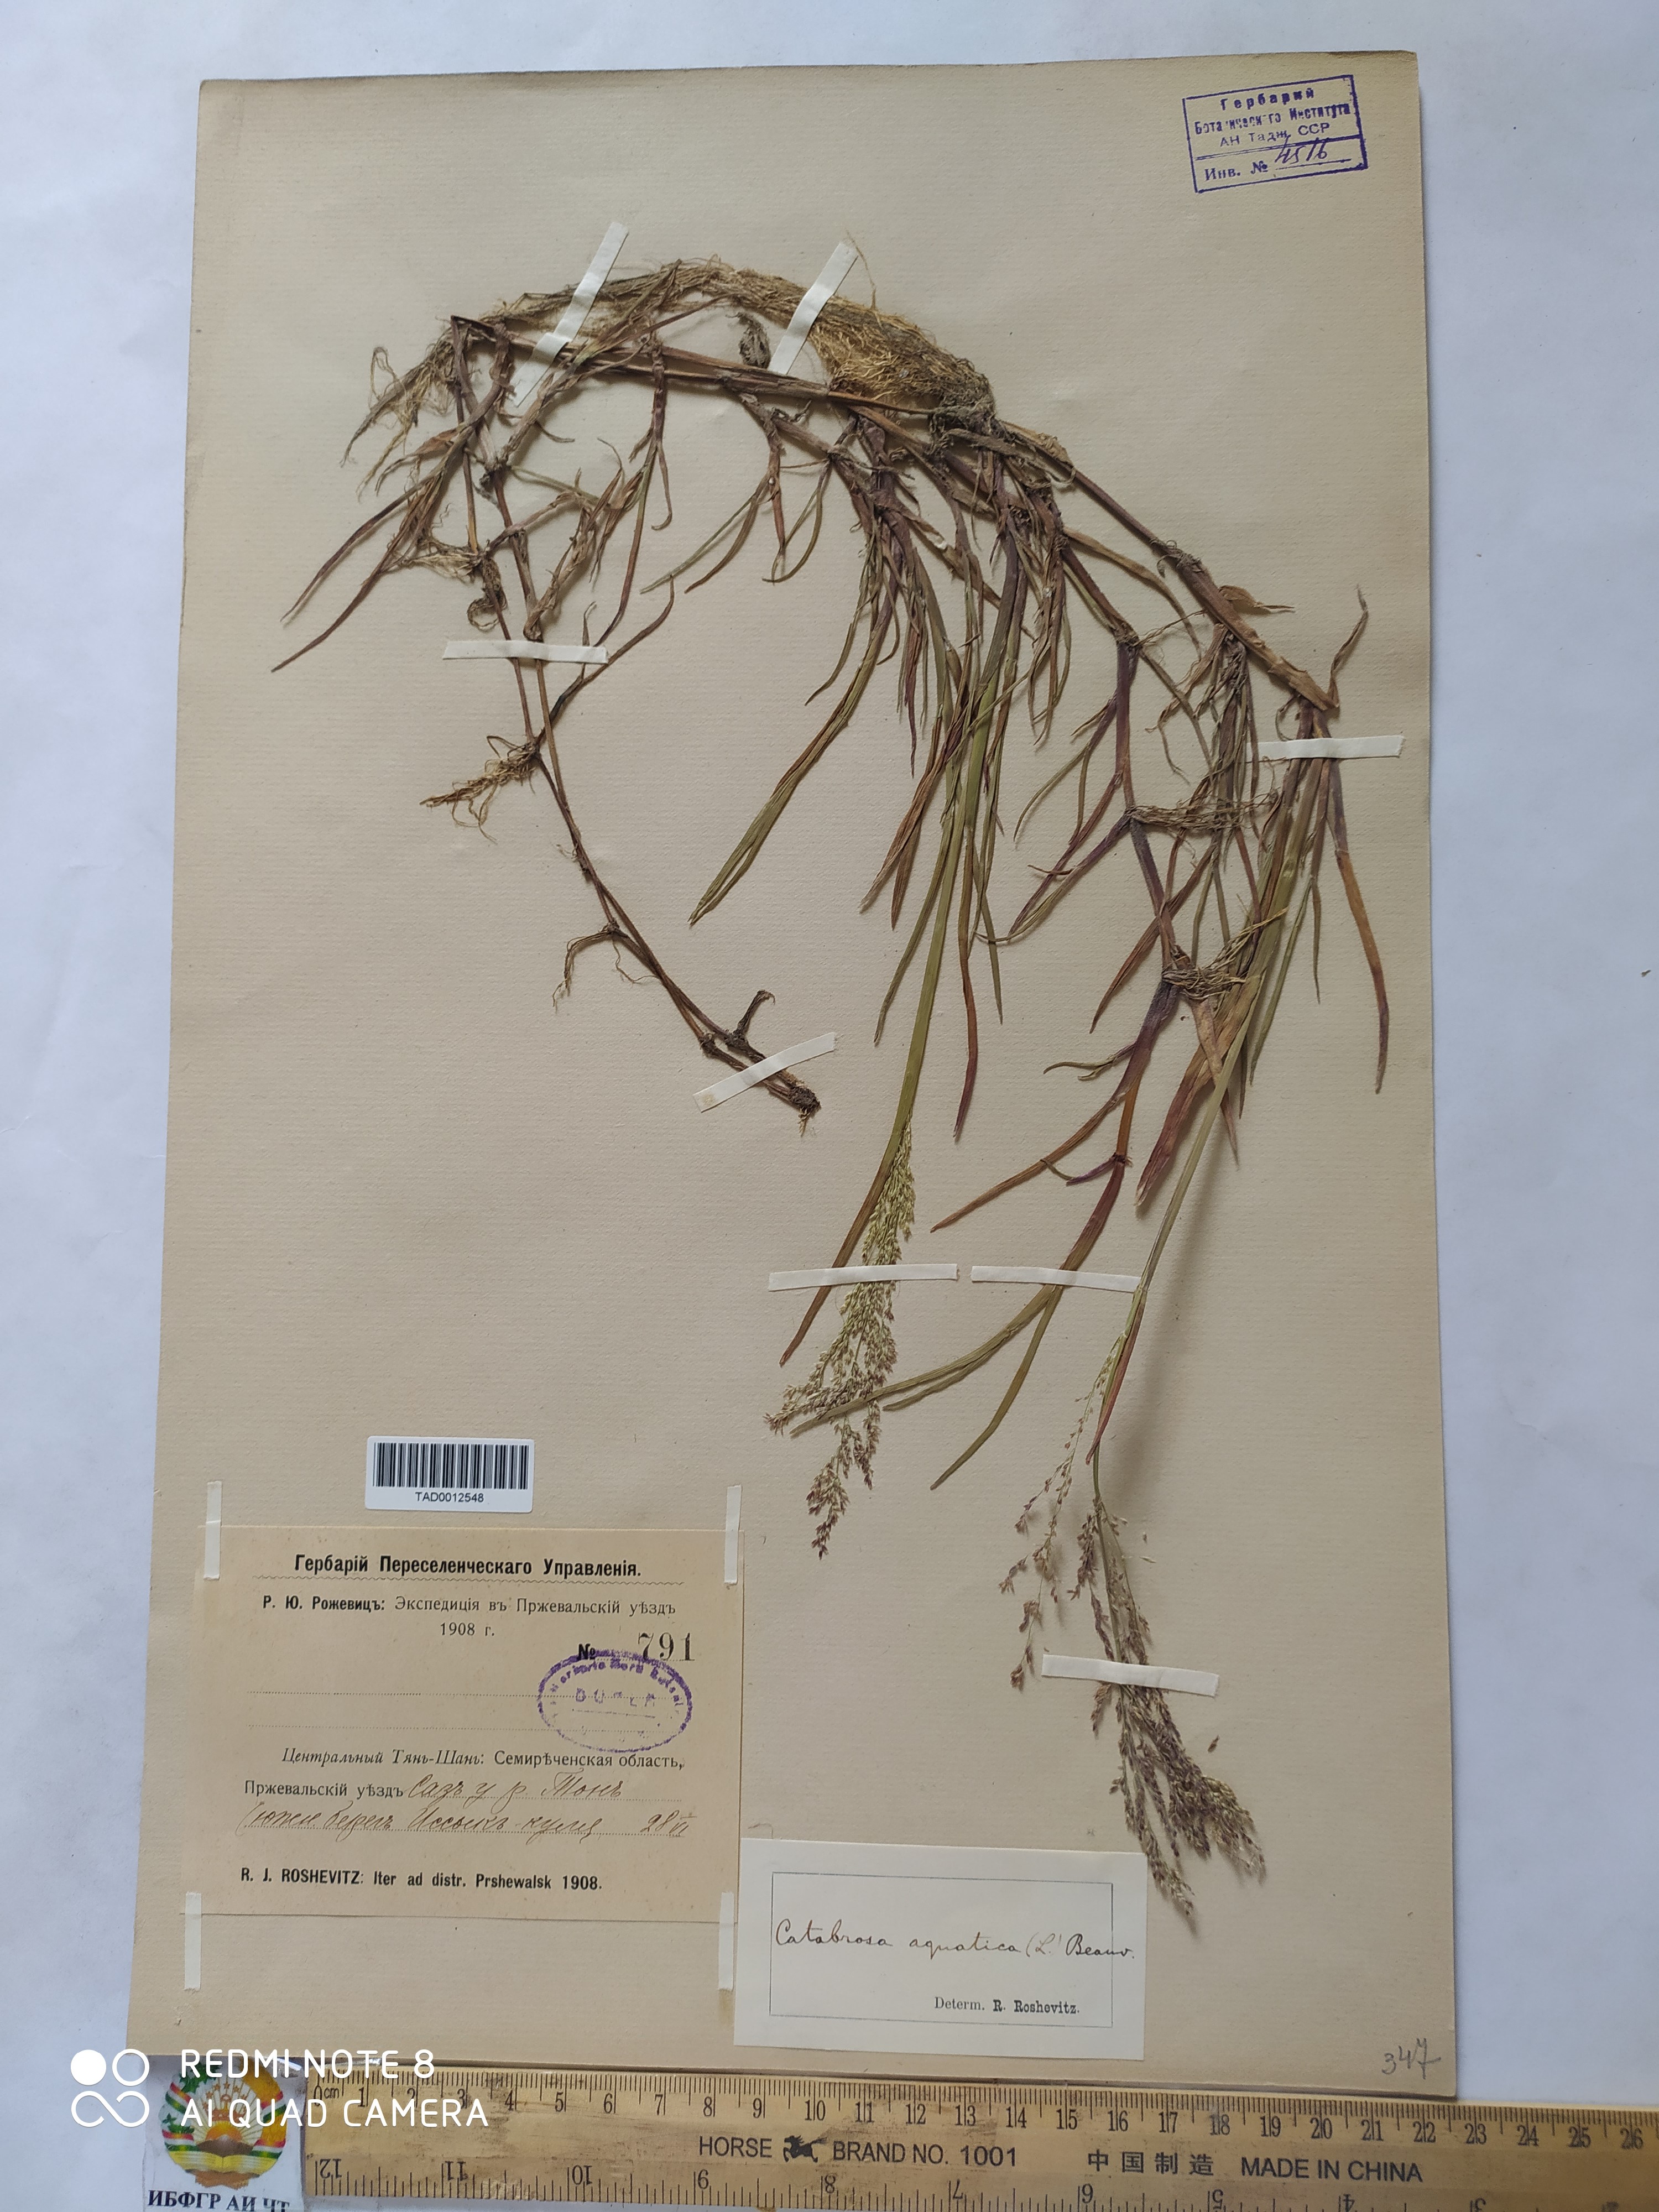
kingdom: Plantae
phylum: Tracheophyta
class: Liliopsida
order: Poales
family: Poaceae
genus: Catabrosa
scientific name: Catabrosa aquatica
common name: Whorl-grass
